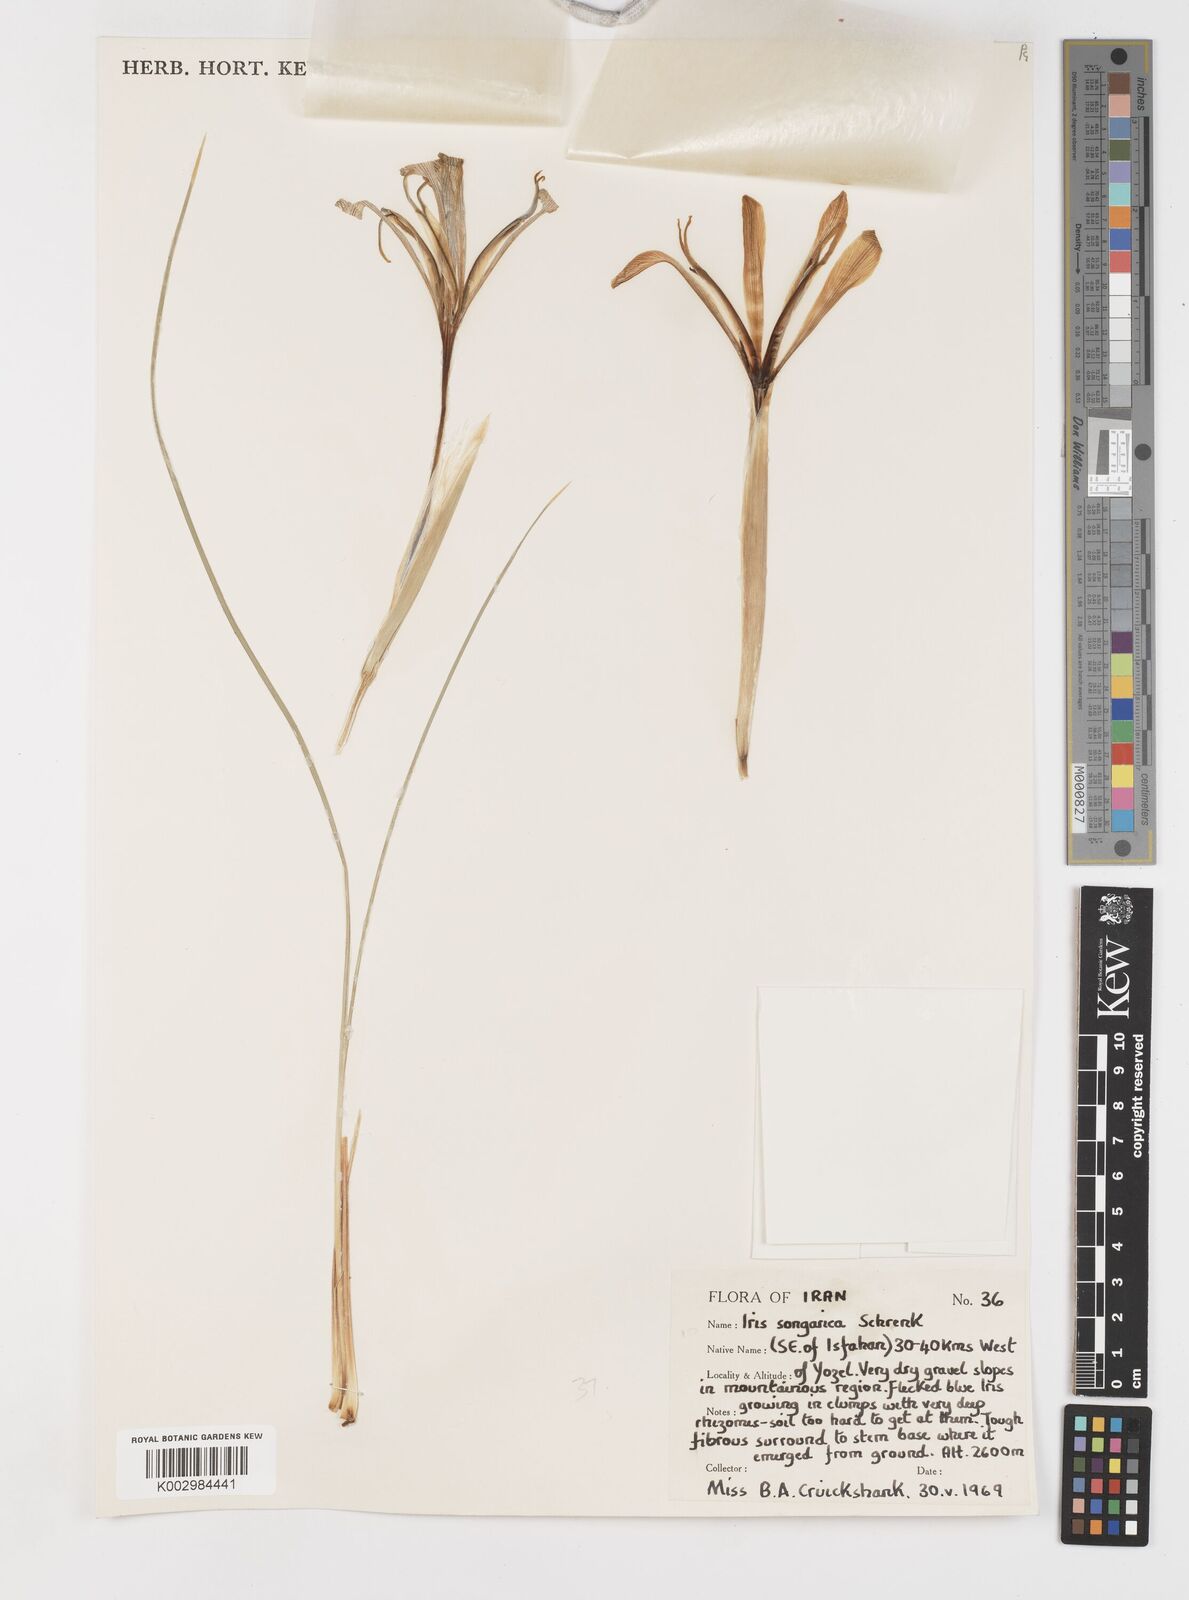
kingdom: Plantae
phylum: Tracheophyta
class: Liliopsida
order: Asparagales
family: Iridaceae
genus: Iris
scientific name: Iris songarica
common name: Songar iris
